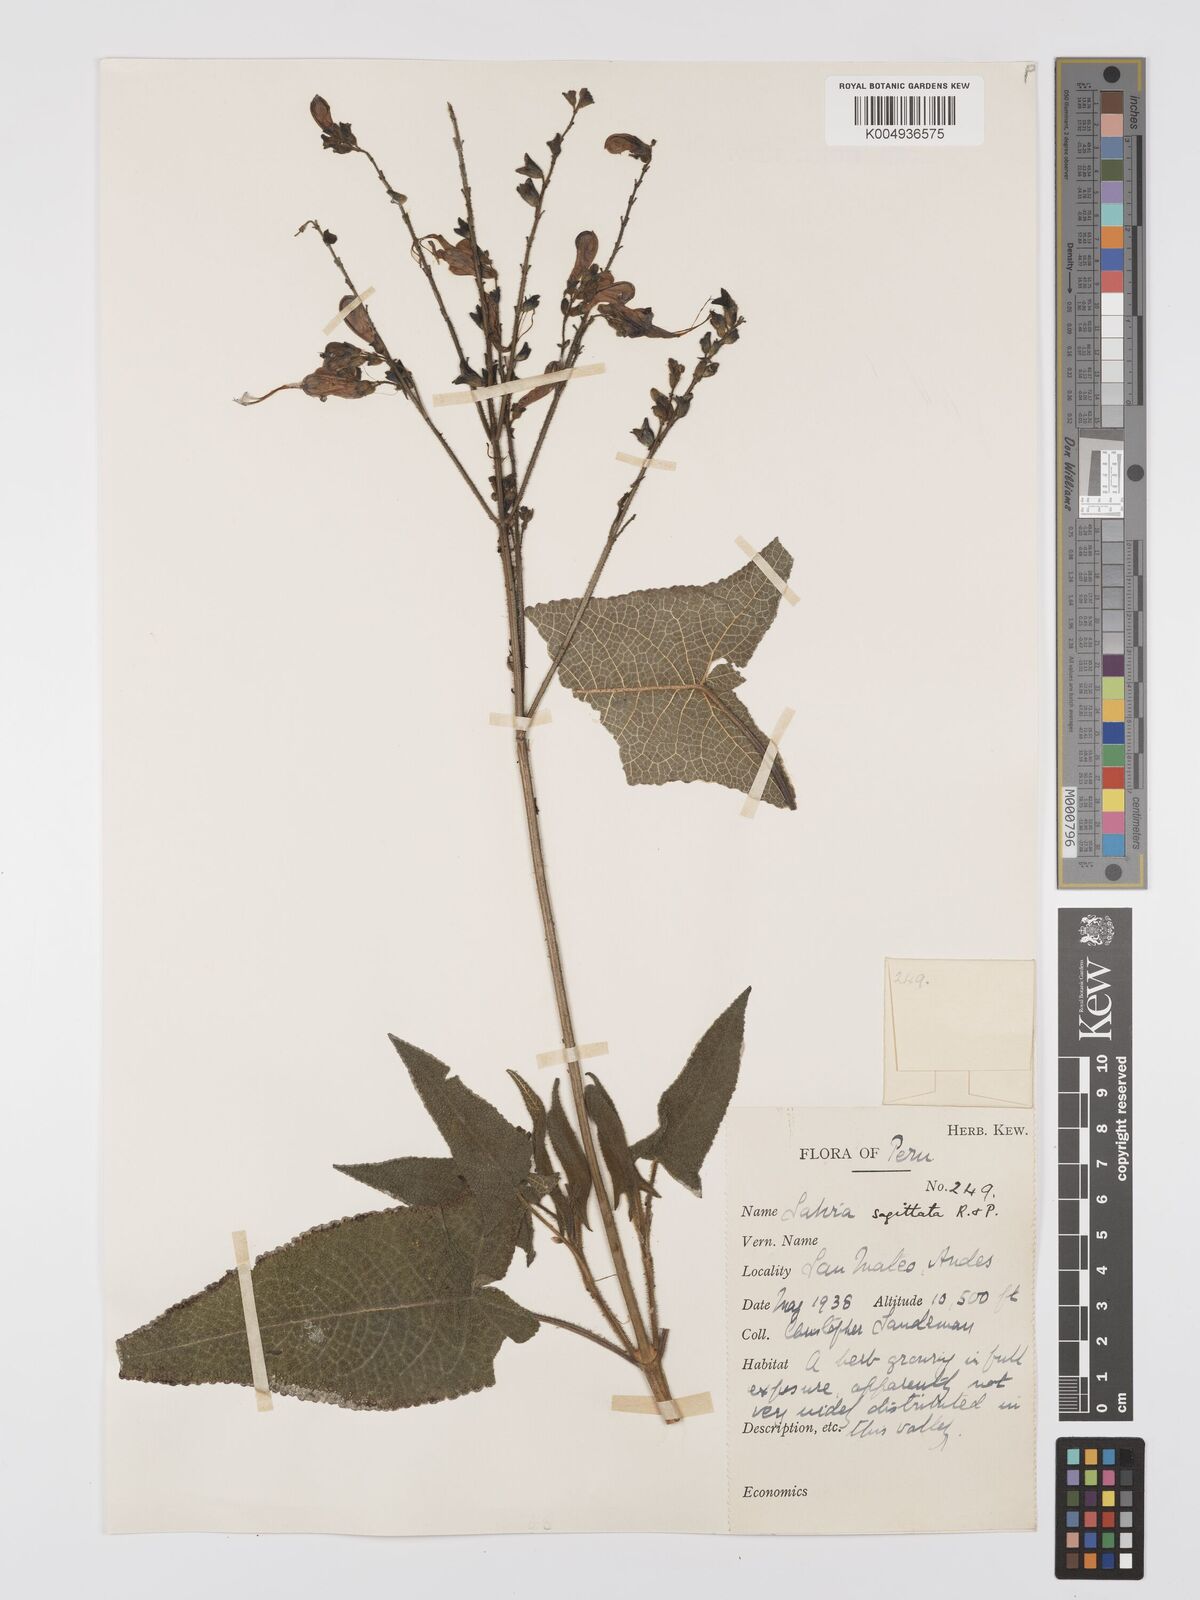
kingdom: Plantae
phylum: Tracheophyta
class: Magnoliopsida
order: Lamiales
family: Lamiaceae
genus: Salvia
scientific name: Salvia sagittata
